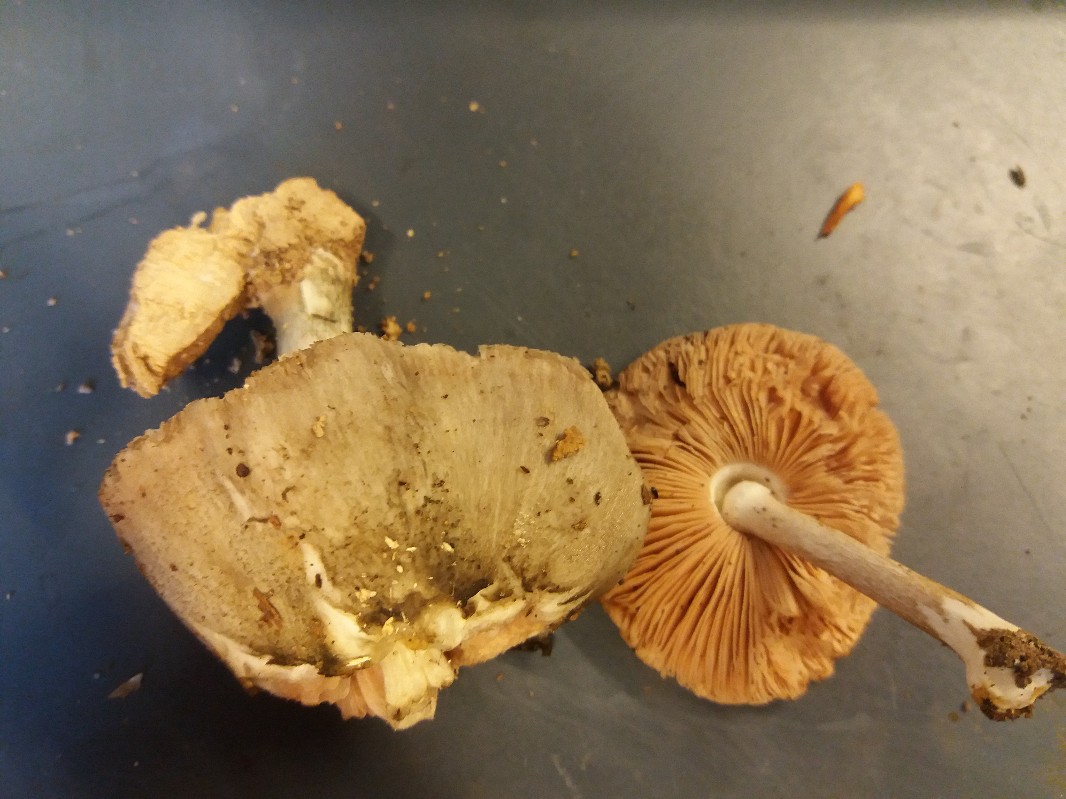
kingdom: Fungi
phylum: Basidiomycota
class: Agaricomycetes
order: Agaricales
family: Pluteaceae
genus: Pluteus
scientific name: Pluteus salicinus
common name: stiv skærmhat
